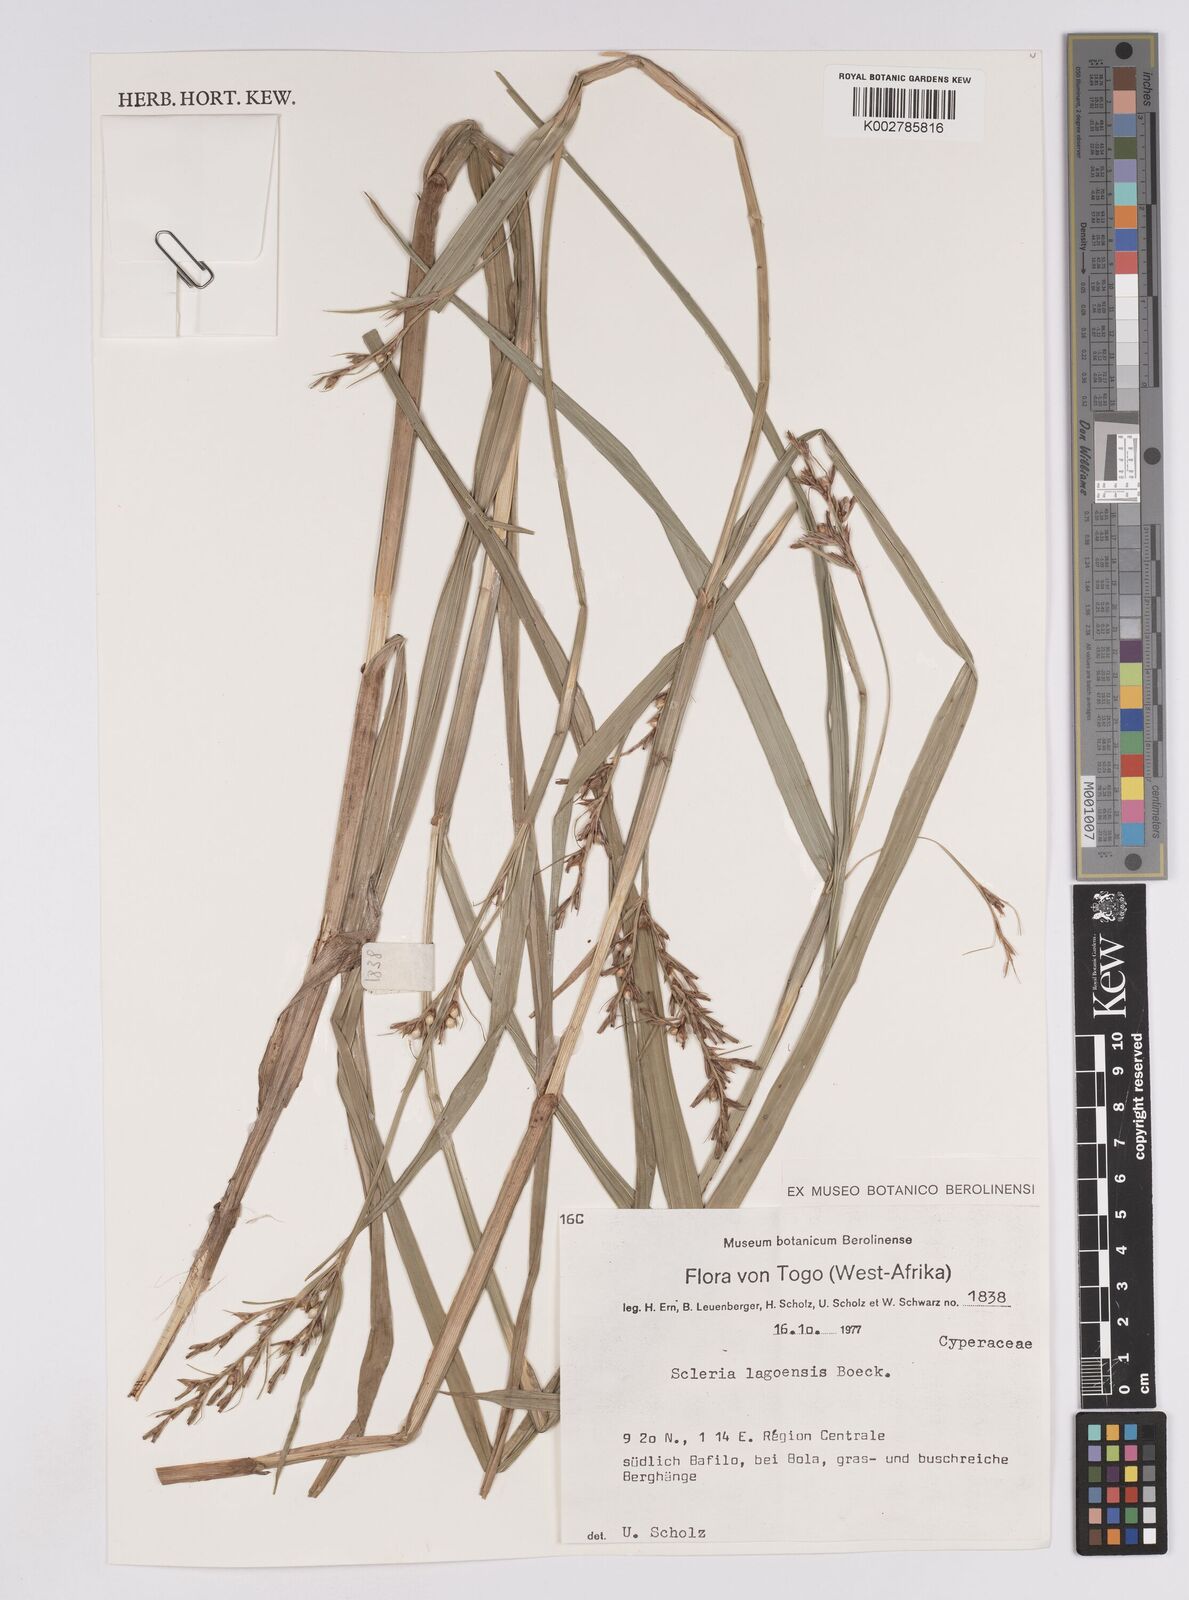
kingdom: Plantae
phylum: Tracheophyta
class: Liliopsida
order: Poales
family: Cyperaceae
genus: Scleria
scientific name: Scleria lagoensis
